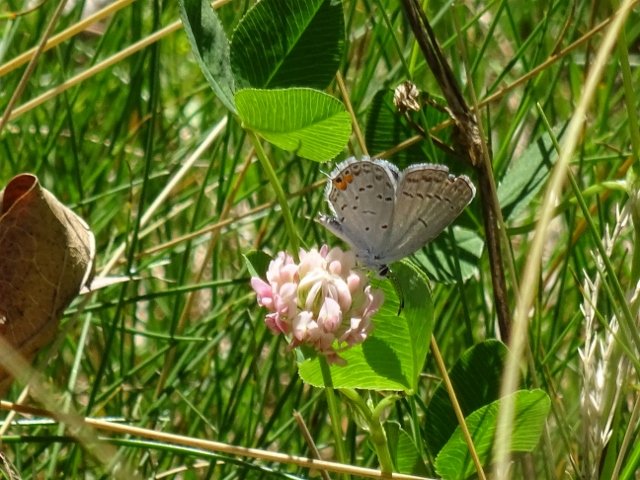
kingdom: Animalia
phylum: Arthropoda
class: Insecta
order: Lepidoptera
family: Lycaenidae
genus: Elkalyce
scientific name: Elkalyce comyntas
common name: Eastern Tailed-Blue
